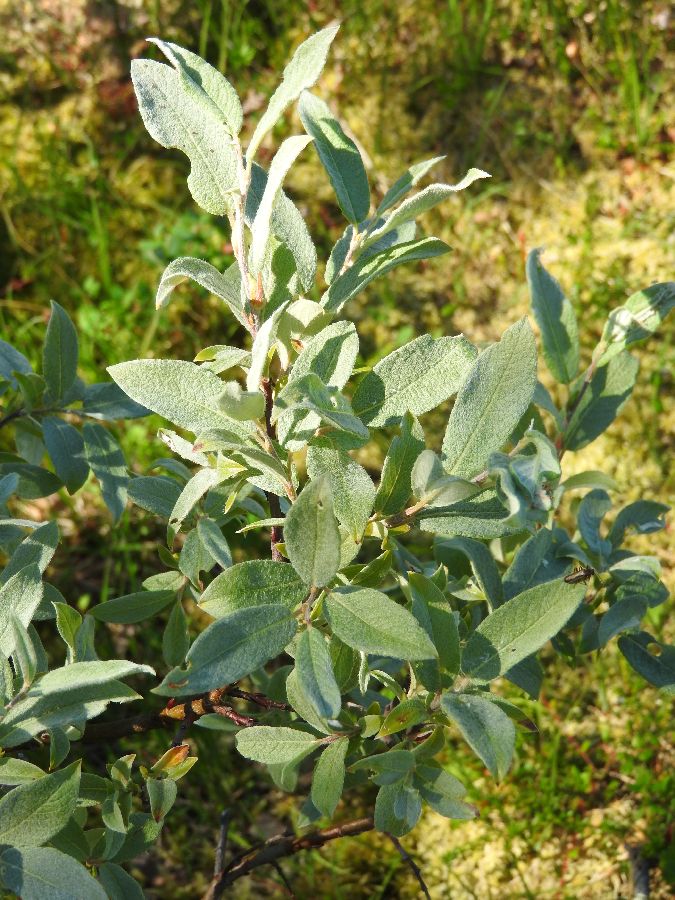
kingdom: Plantae
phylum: Tracheophyta
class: Magnoliopsida
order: Malpighiales
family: Salicaceae
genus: Salix
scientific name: Salix lapponum
